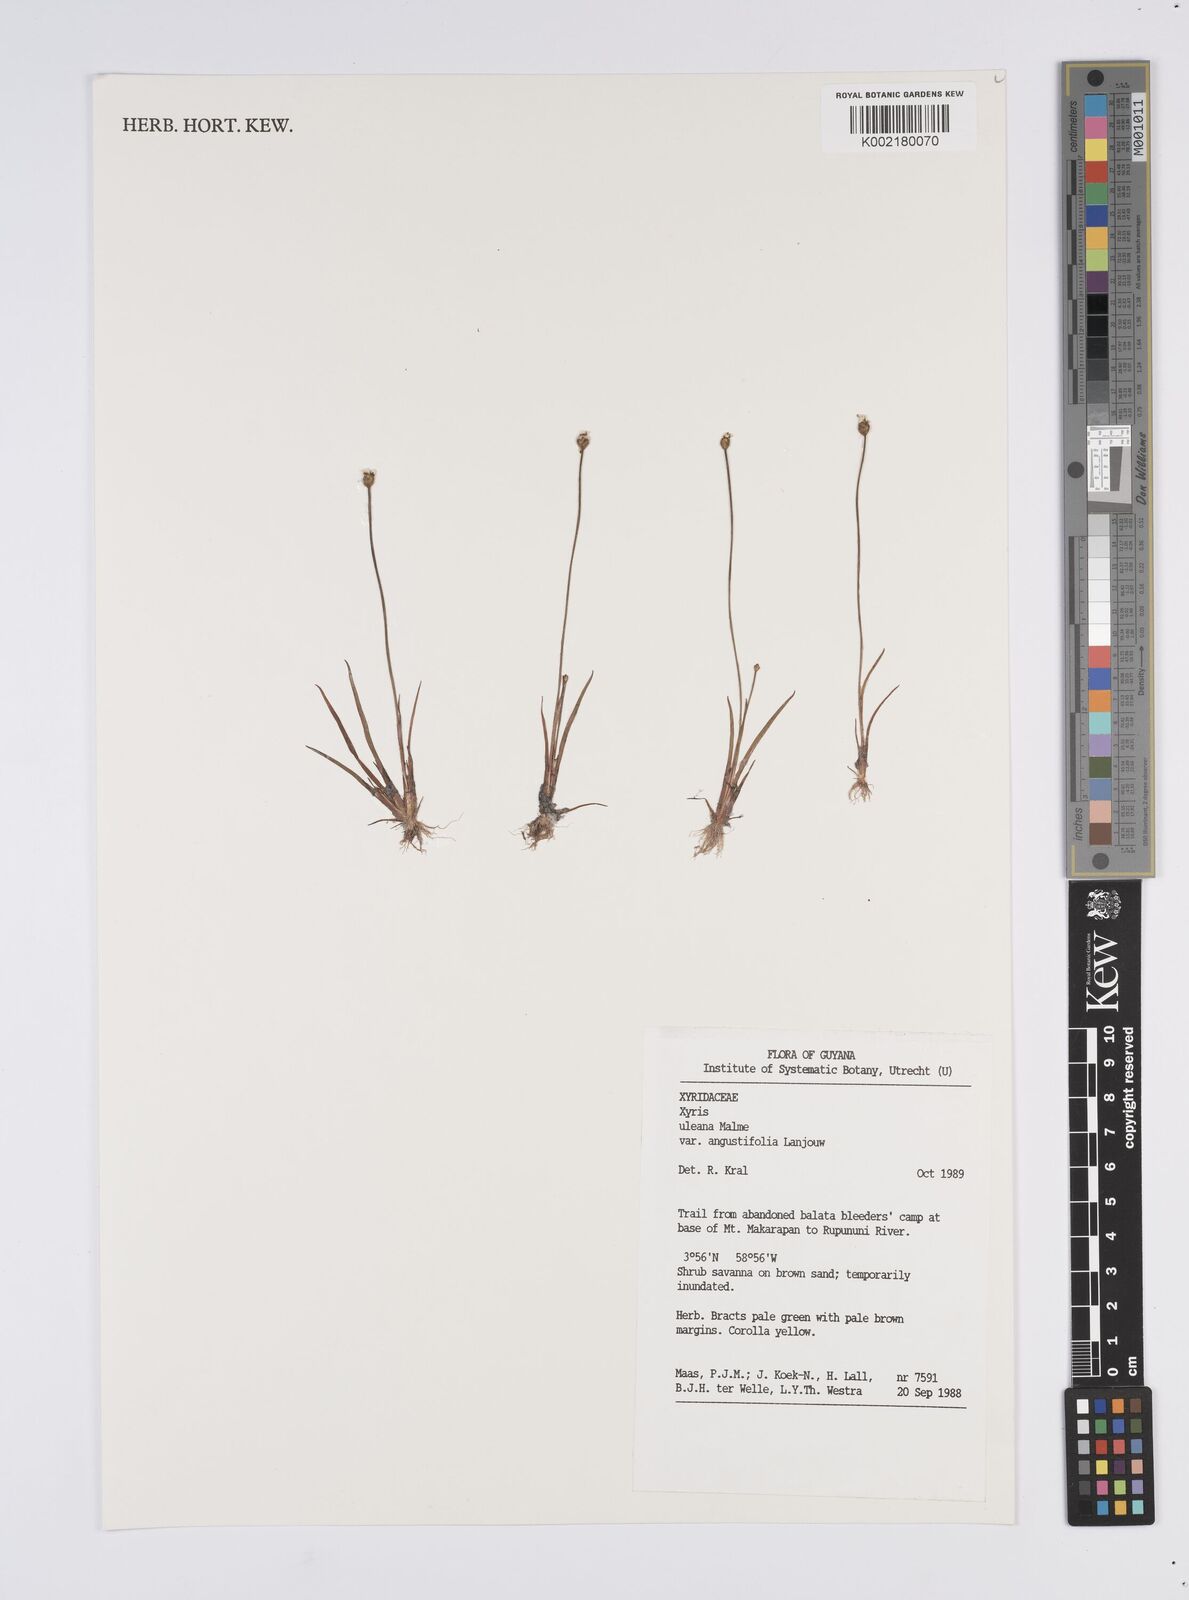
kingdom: Plantae
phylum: Tracheophyta
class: Liliopsida
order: Poales
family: Xyridaceae
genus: Xyris
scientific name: Xyris uleana
